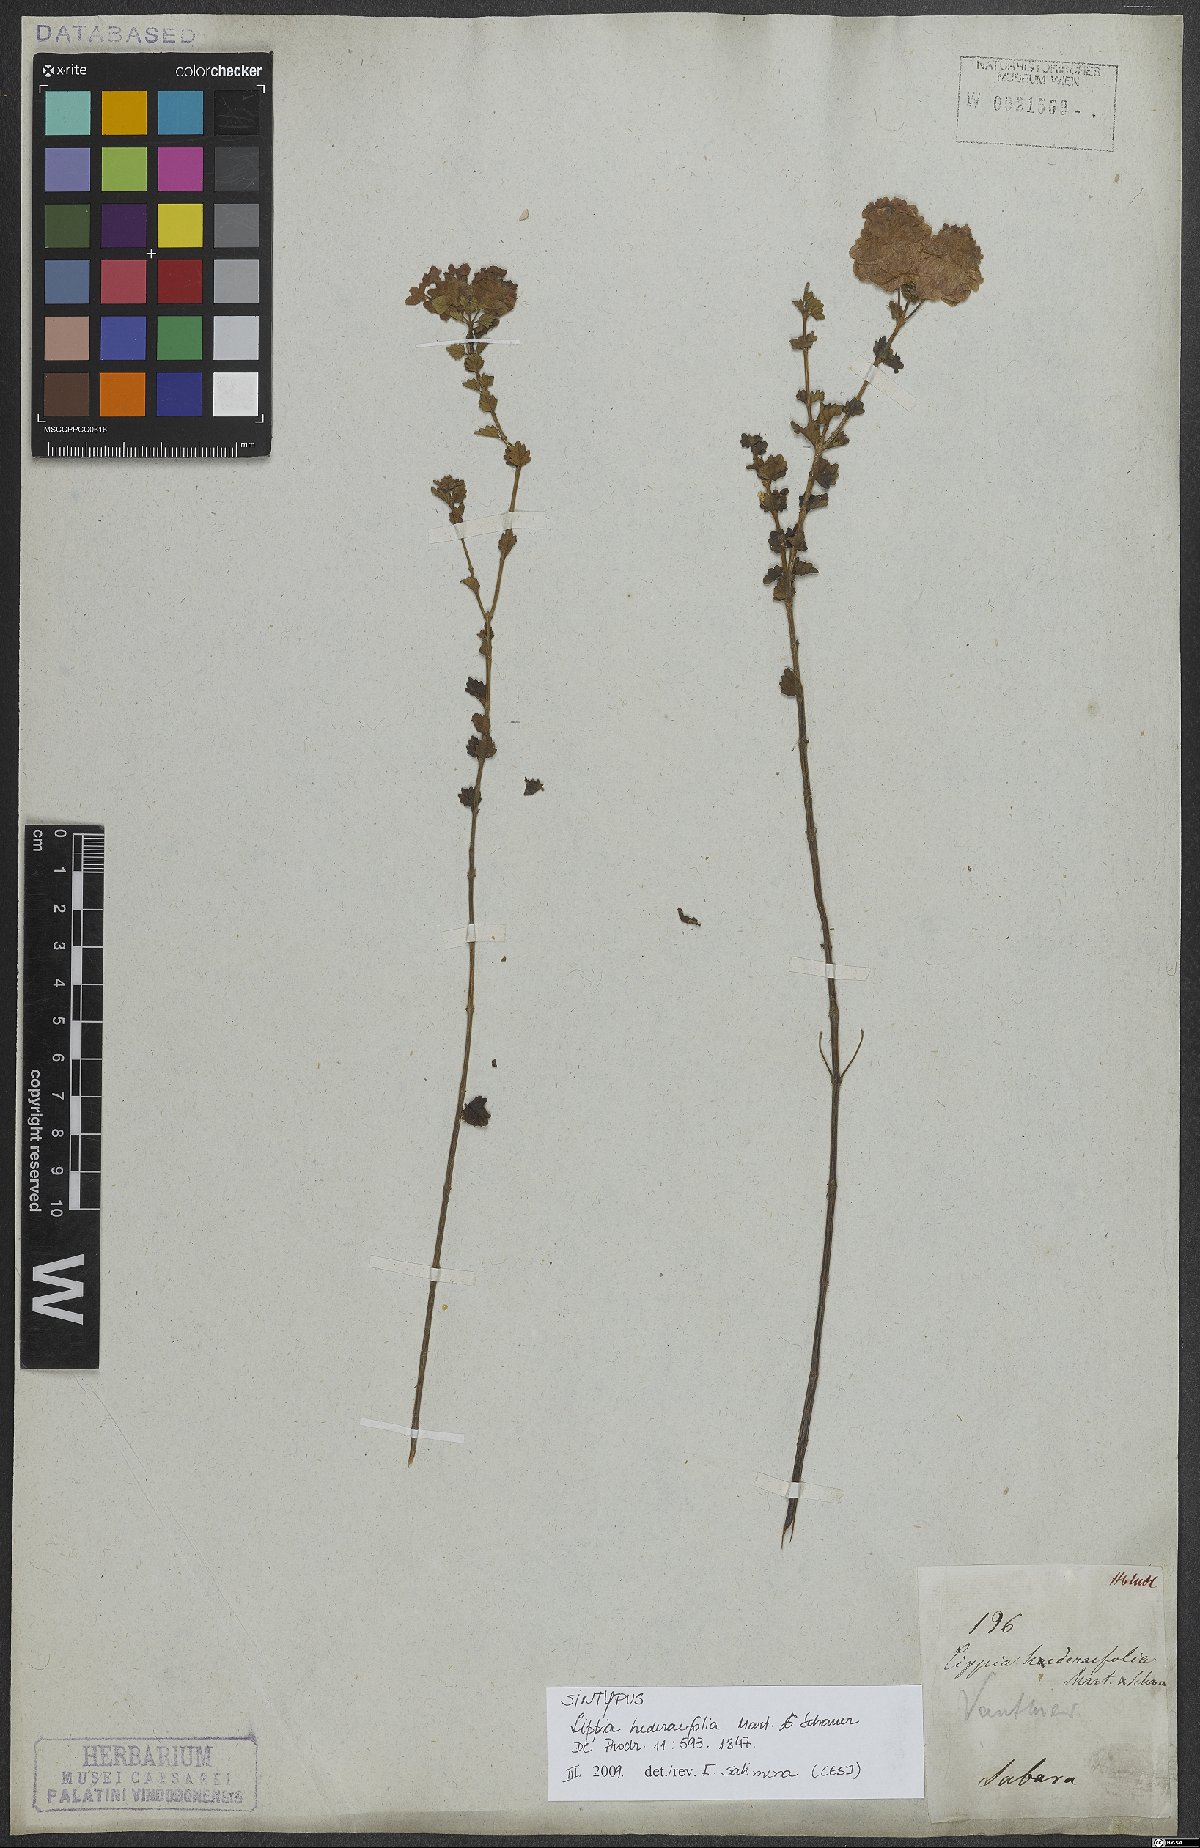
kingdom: Plantae
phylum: Tracheophyta
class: Magnoliopsida
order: Lamiales
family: Verbenaceae
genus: Lippia
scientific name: Lippia hederifolia
